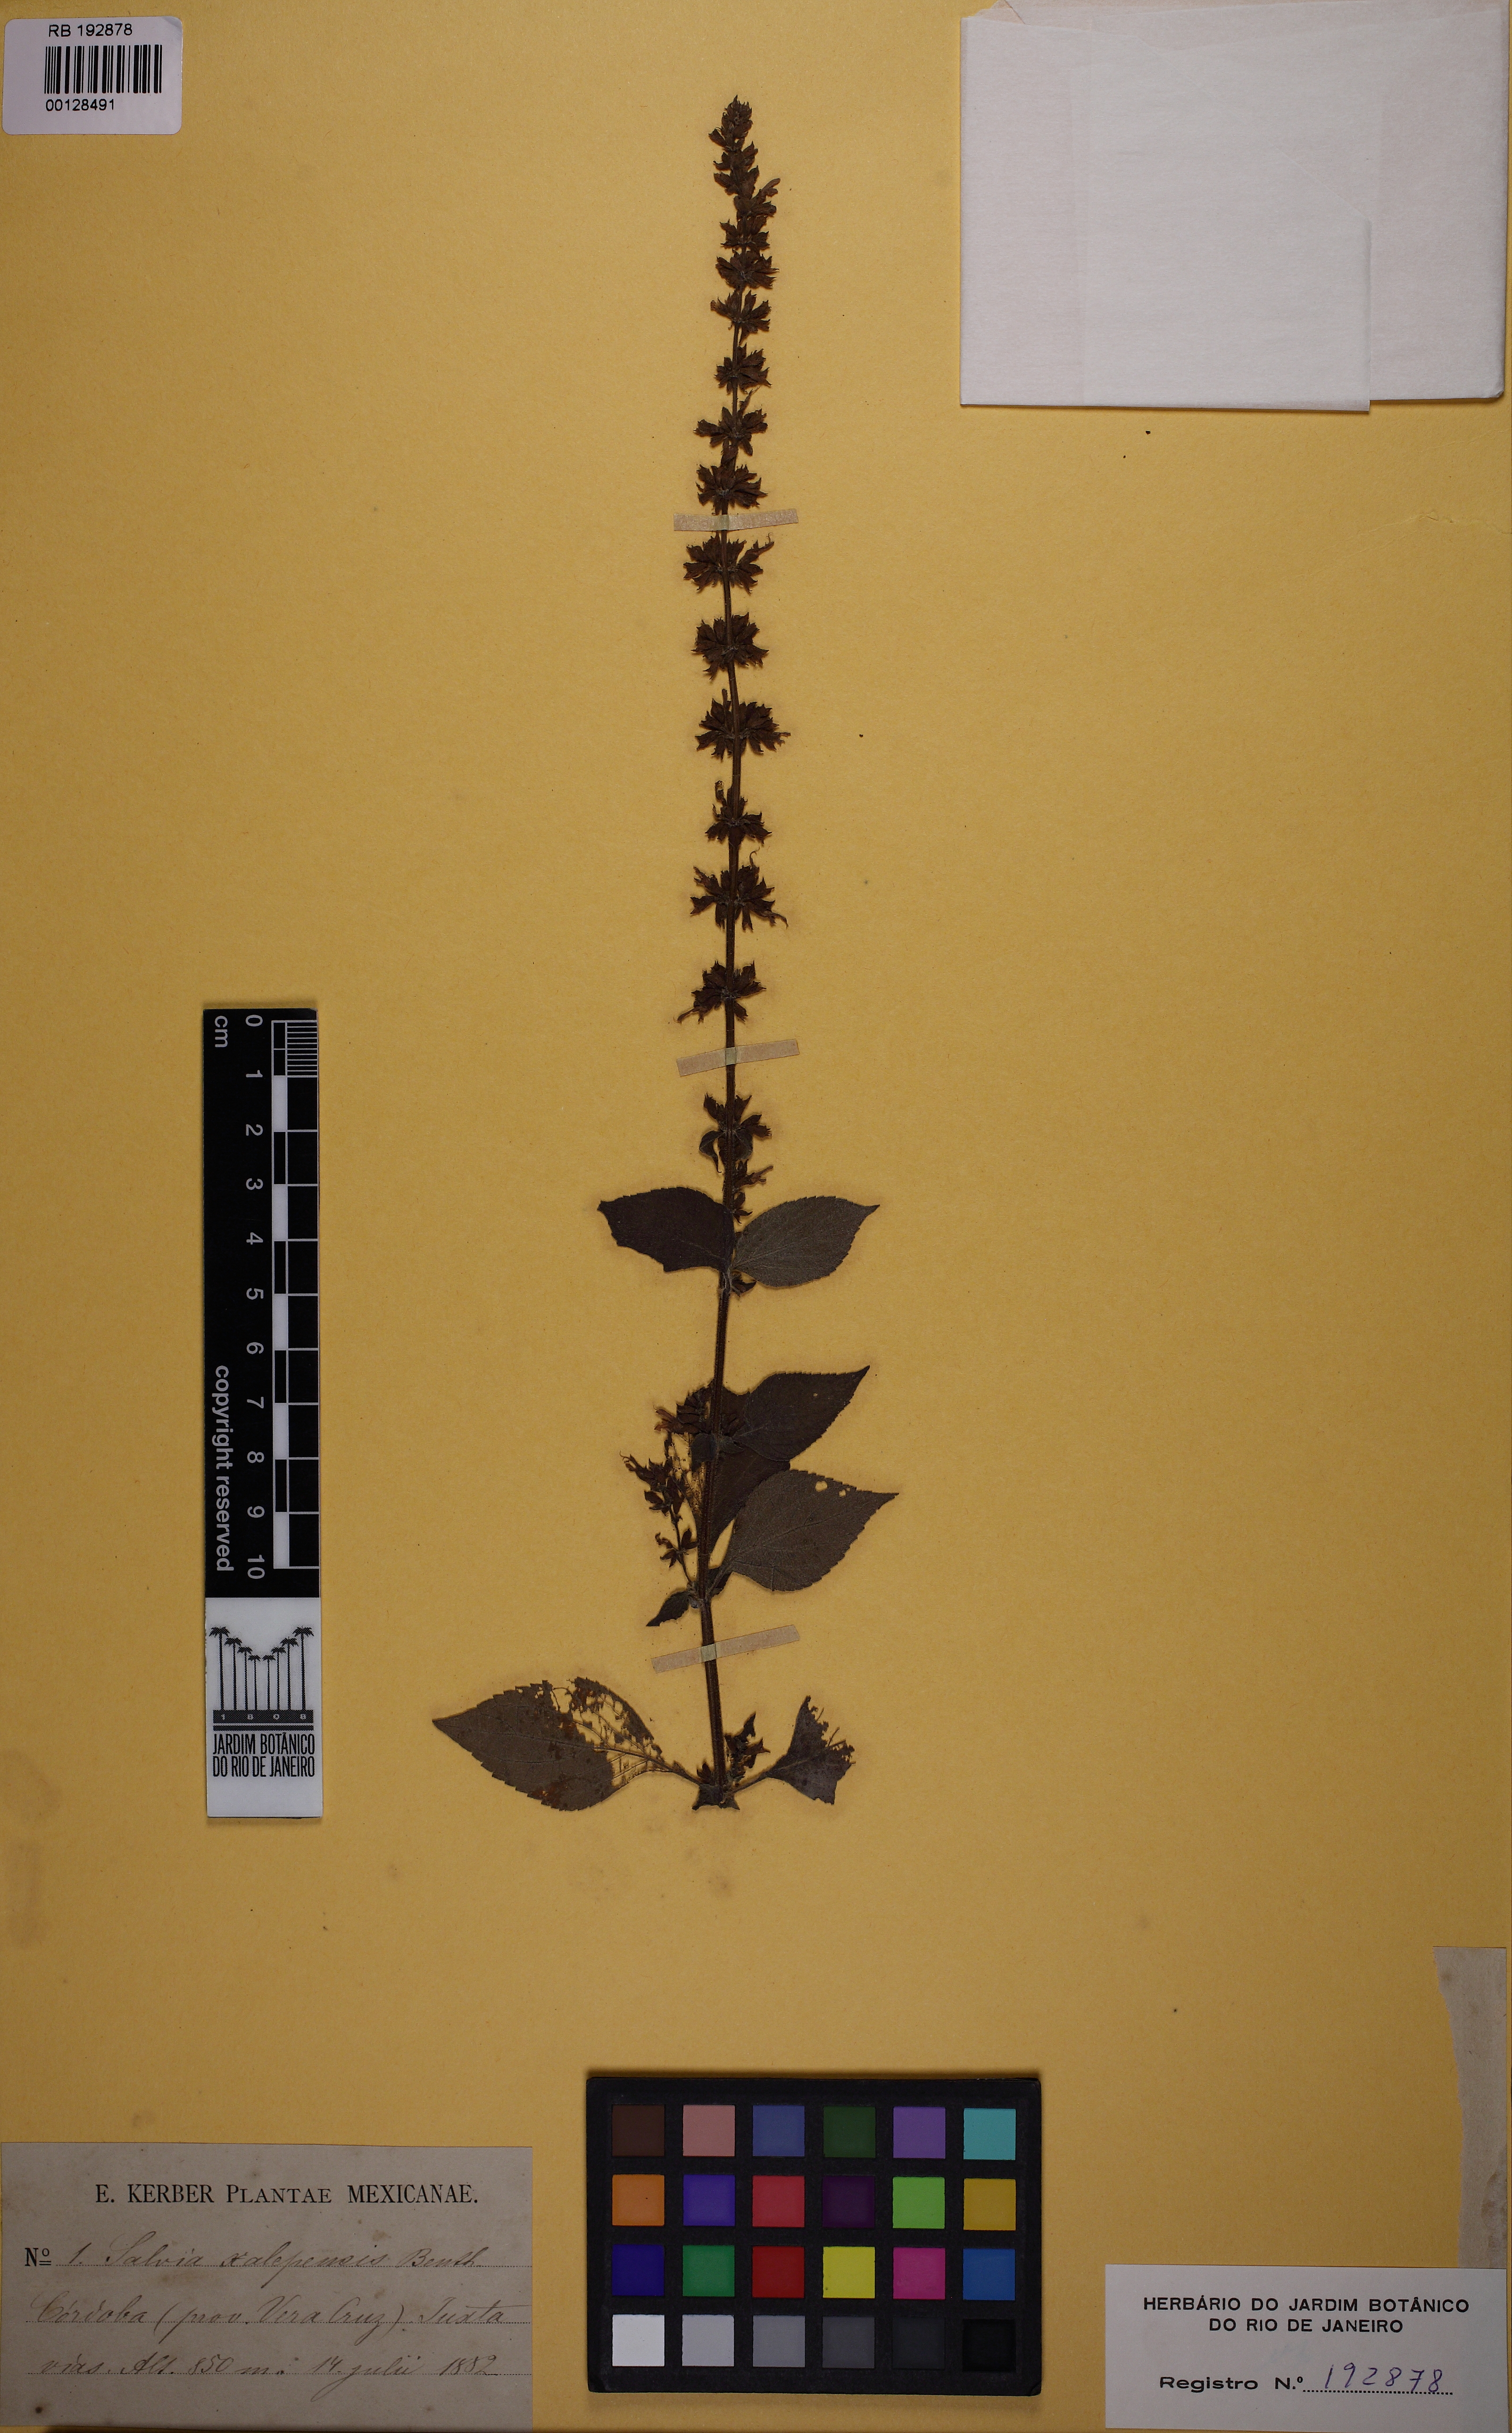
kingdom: Plantae
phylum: Tracheophyta
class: Magnoliopsida
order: Lamiales
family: Lamiaceae
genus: Salvia
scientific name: Salvia xalapensis
